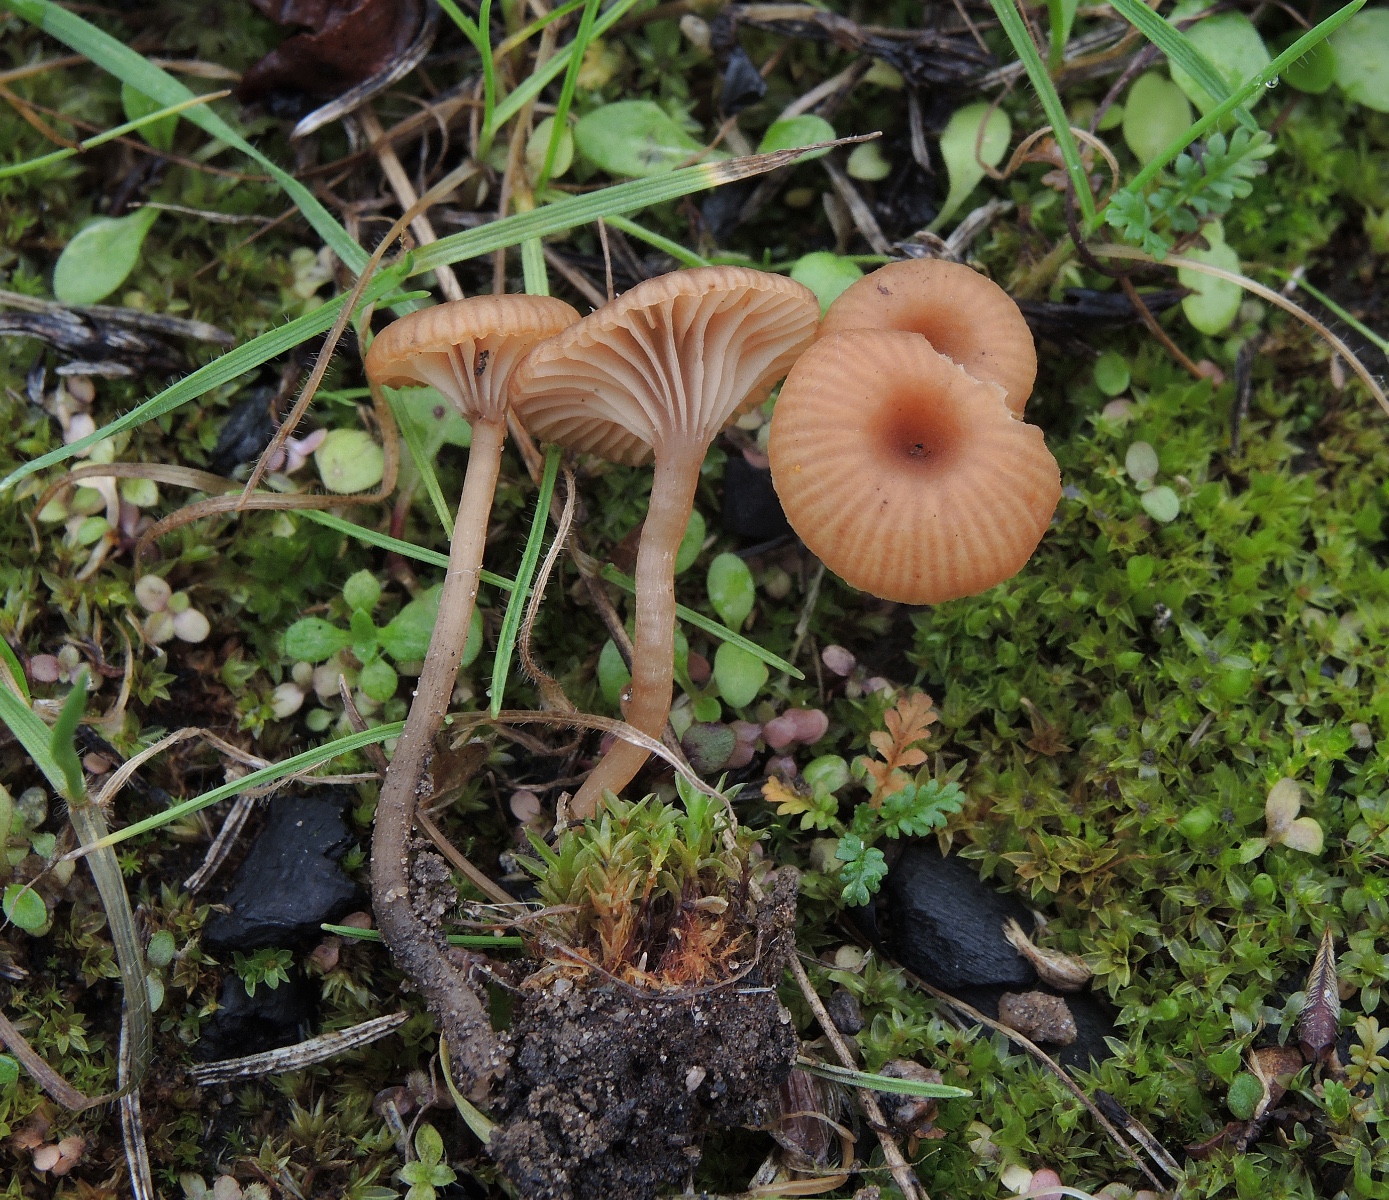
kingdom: Fungi
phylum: Basidiomycota
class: Agaricomycetes
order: Agaricales
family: Tricholomataceae
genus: Omphalina
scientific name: Omphalina pyxidata
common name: rødbrun navlehat
